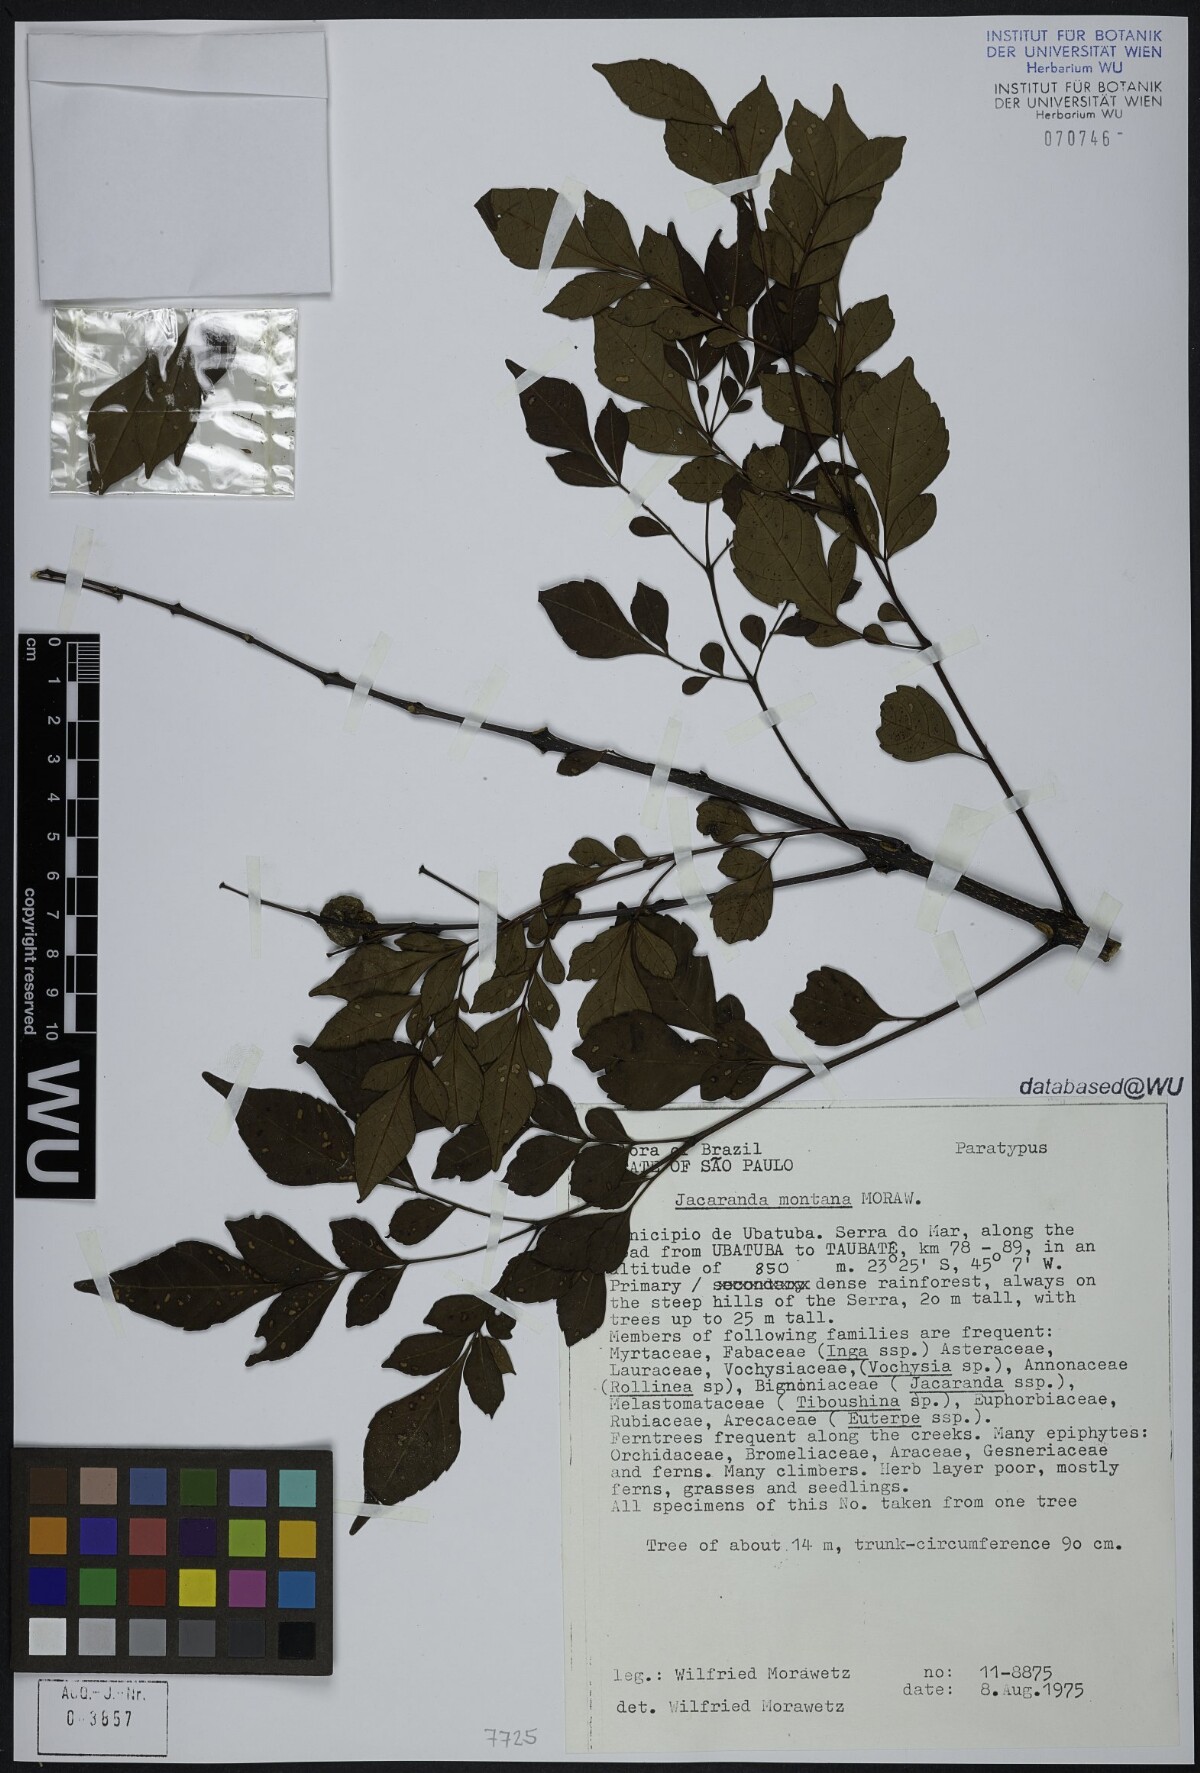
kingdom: Plantae
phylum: Tracheophyta
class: Magnoliopsida
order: Lamiales
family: Bignoniaceae
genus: Jacaranda
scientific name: Jacaranda montana
